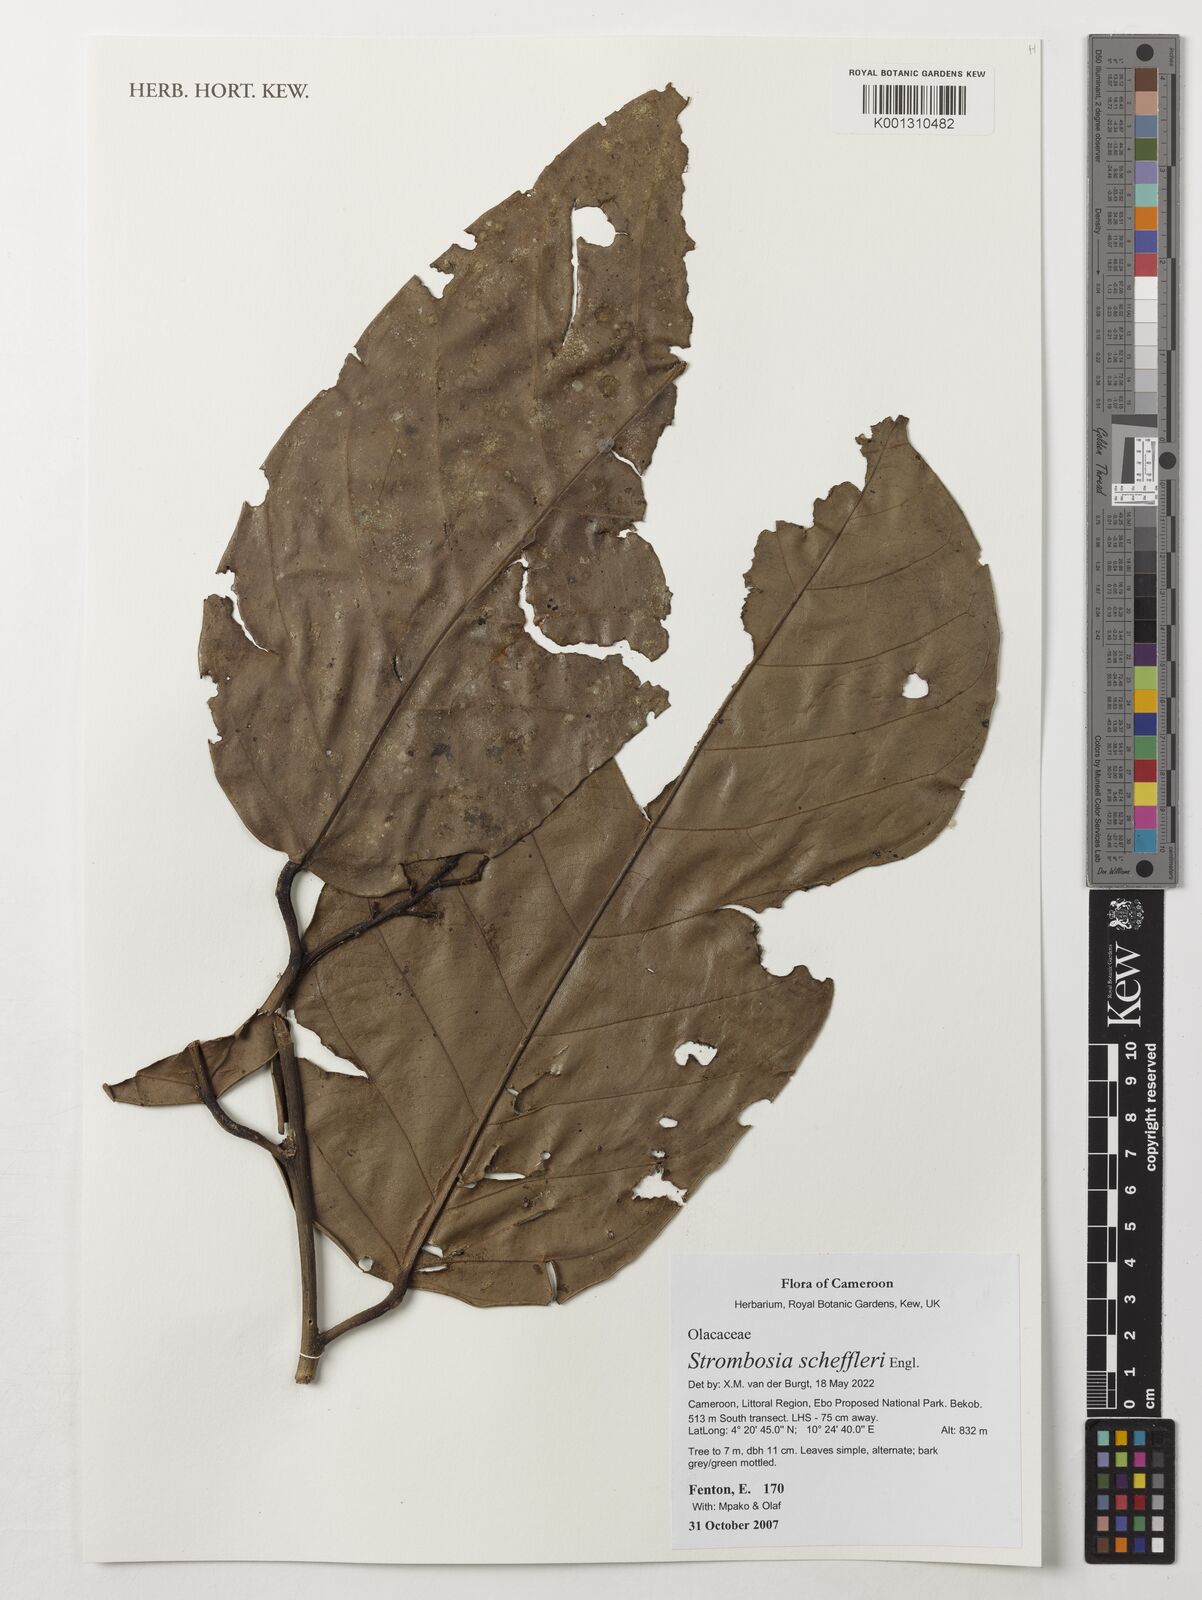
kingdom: Plantae
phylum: Tracheophyta
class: Magnoliopsida
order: Santalales
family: Strombosiaceae
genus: Strombosia
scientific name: Strombosia scheffleri
